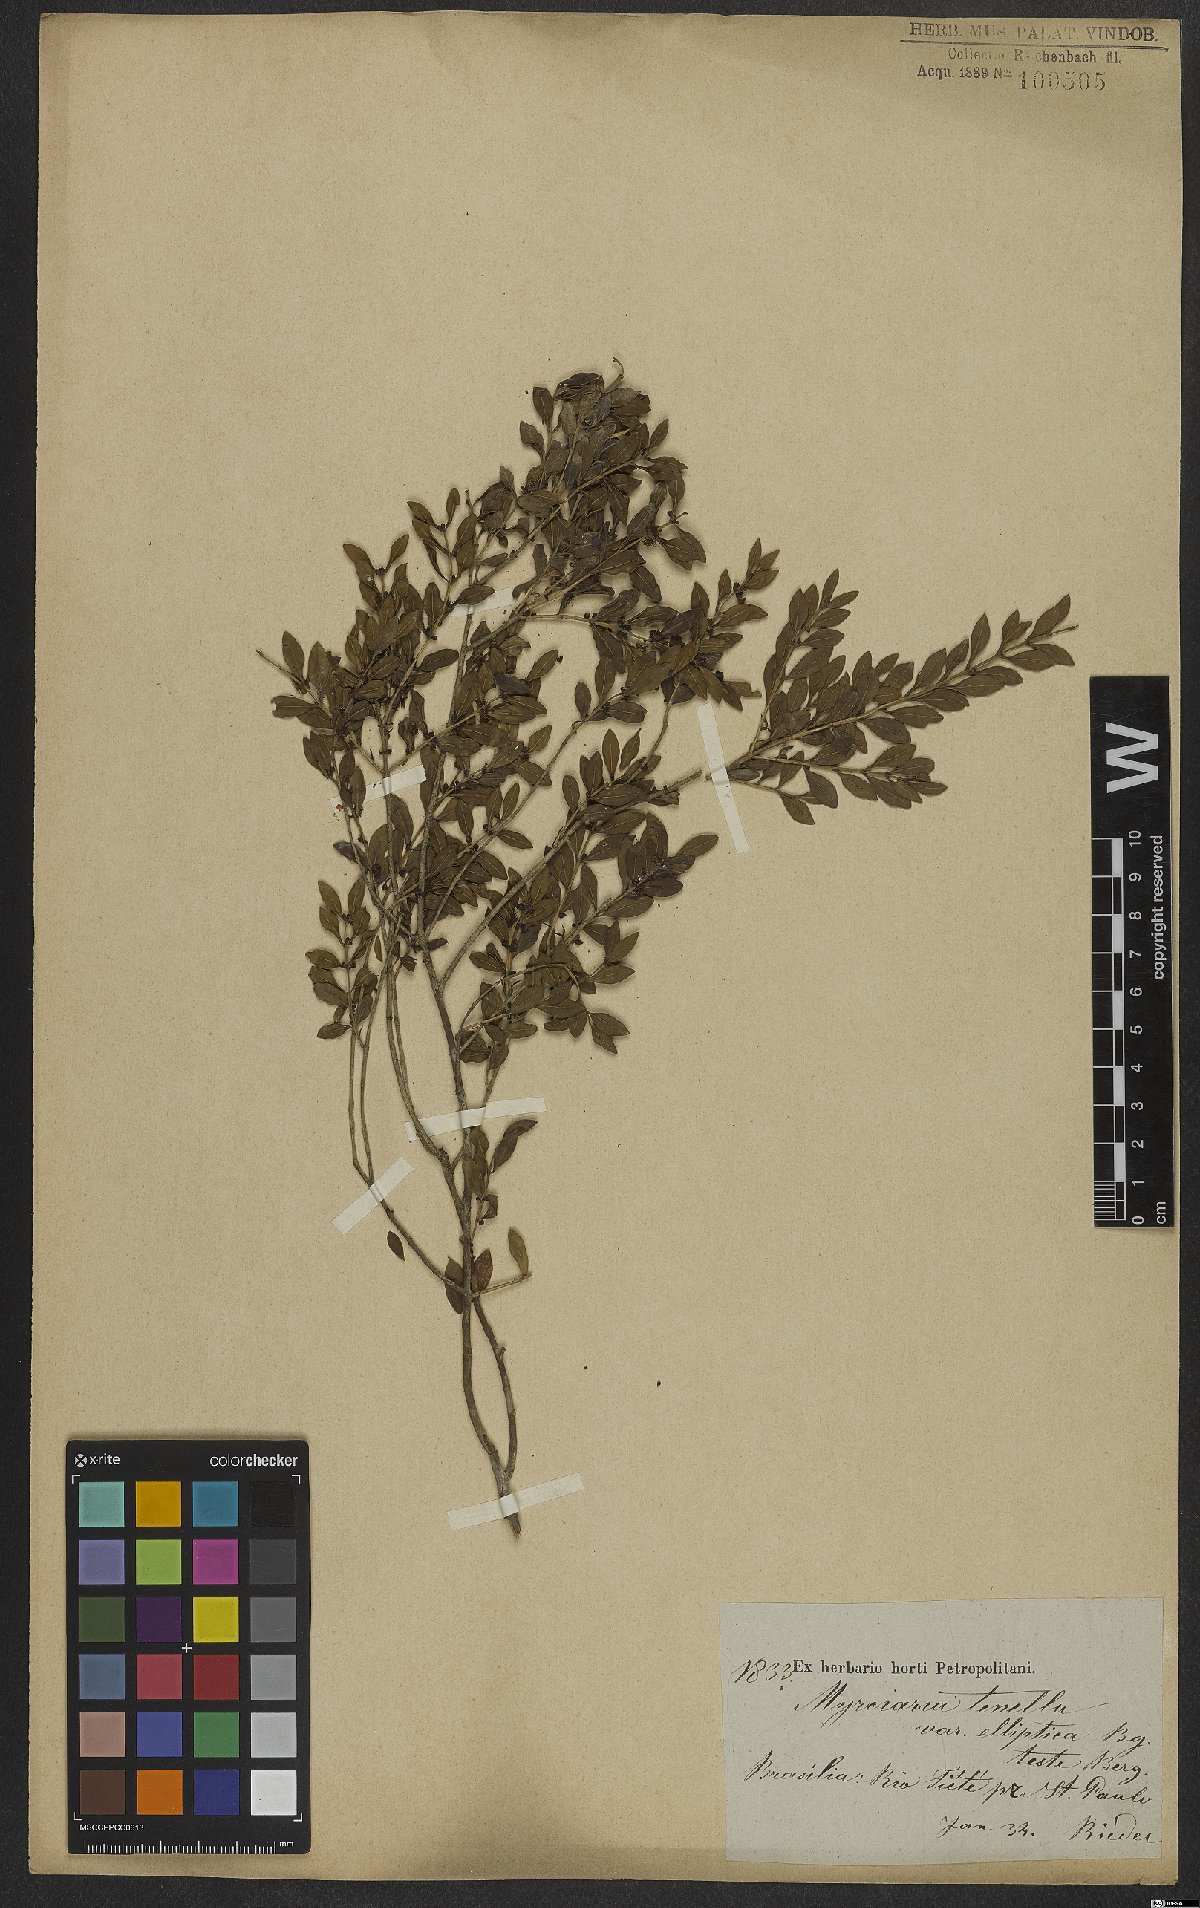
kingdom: Plantae
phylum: Tracheophyta
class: Magnoliopsida
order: Myrtales
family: Myrtaceae
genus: Myrciaria
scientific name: Myrciaria tenella
